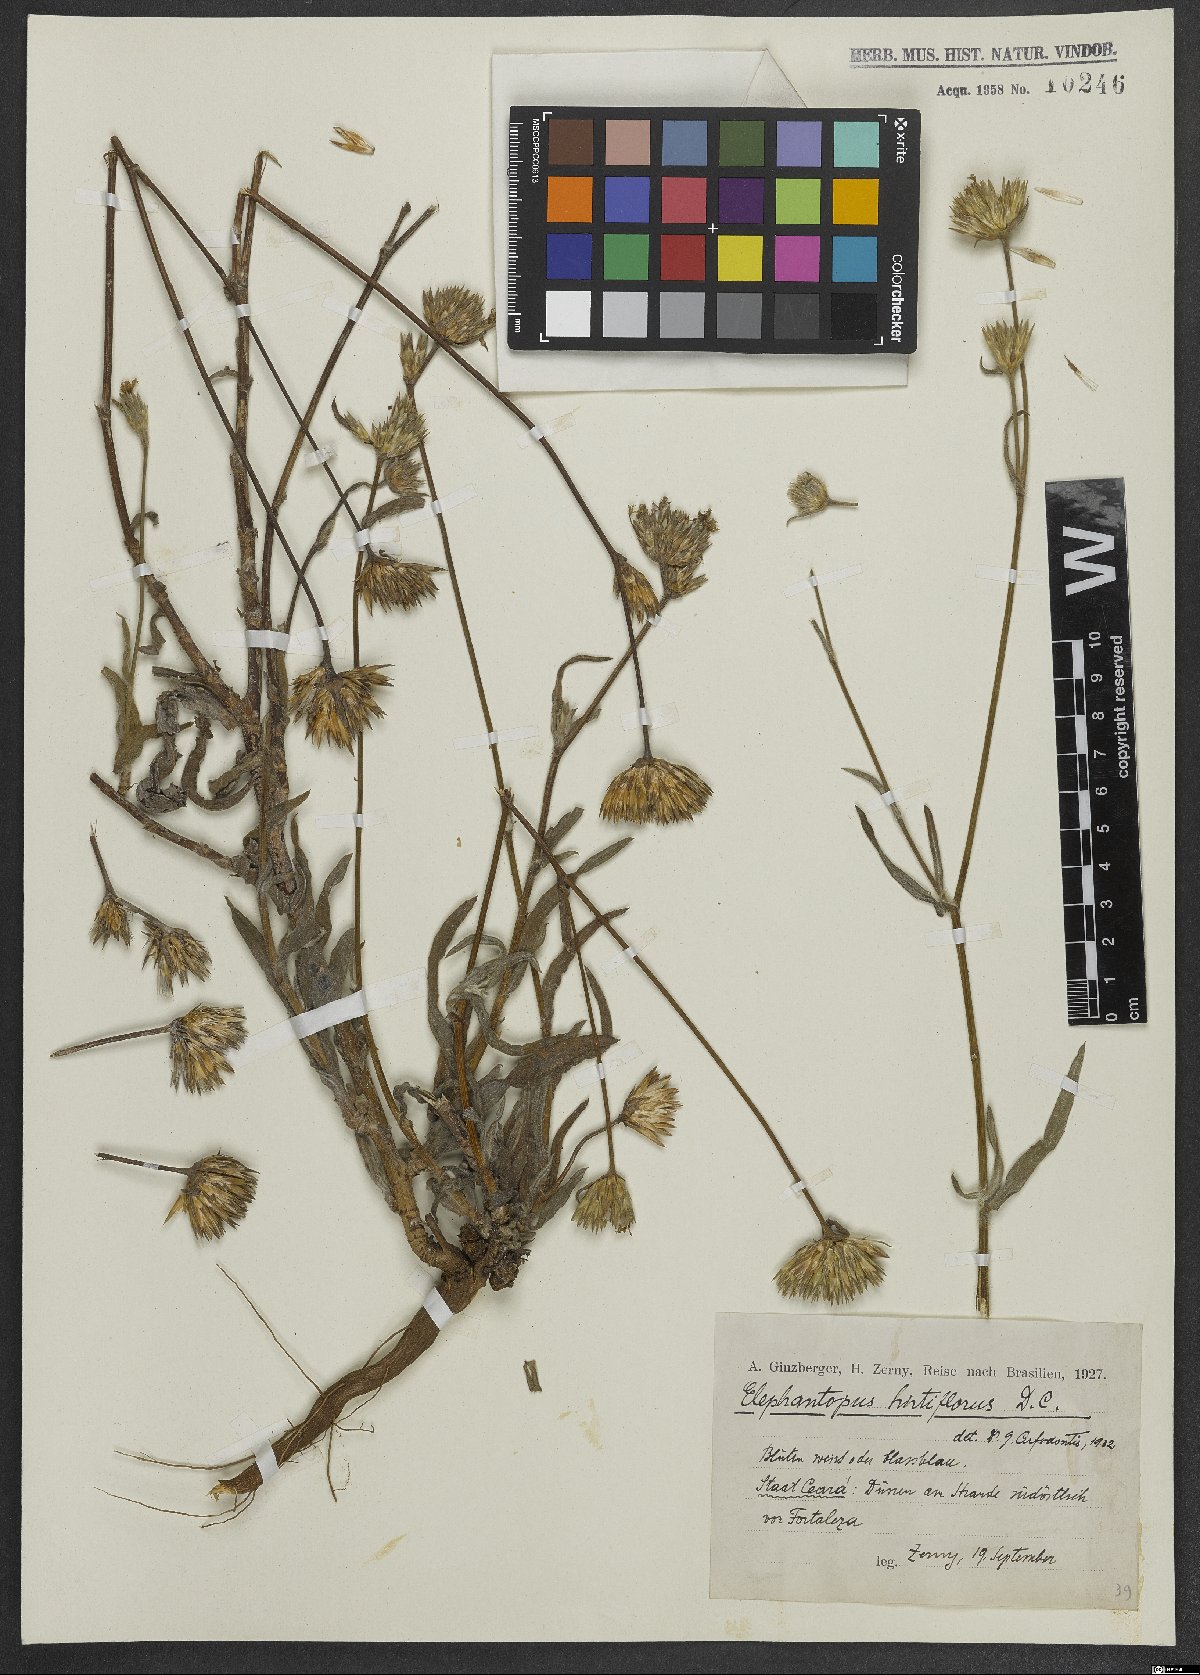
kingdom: Plantae
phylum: Tracheophyta
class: Magnoliopsida
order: Asterales
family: Asteraceae
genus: Elephantopus
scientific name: Elephantopus hirtiflorus
